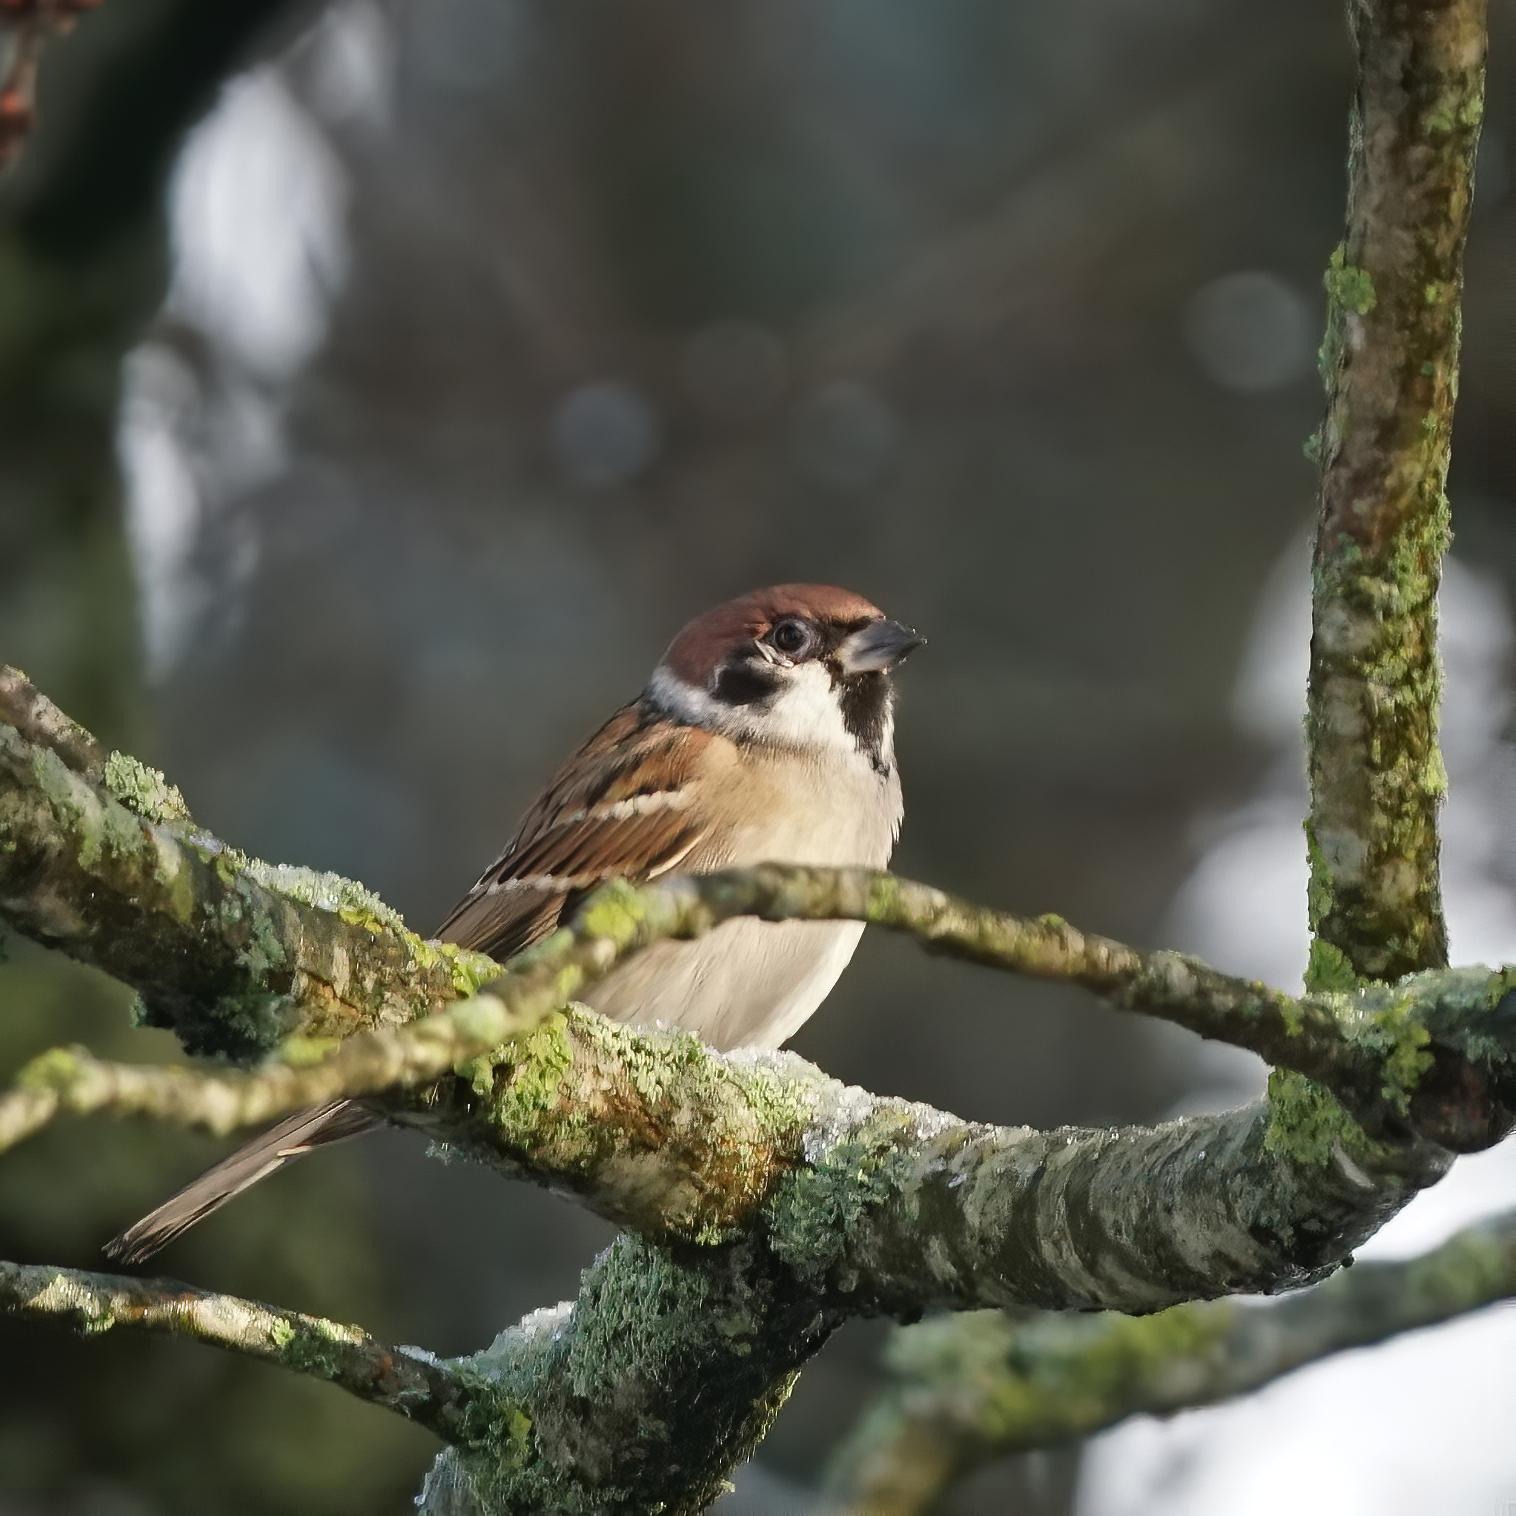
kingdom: Animalia
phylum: Chordata
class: Aves
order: Passeriformes
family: Passeridae
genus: Passer
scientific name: Passer montanus
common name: Skovspurv
